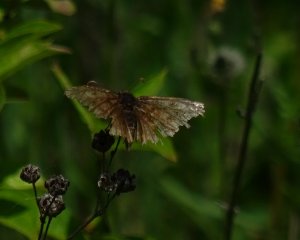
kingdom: Animalia
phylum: Arthropoda
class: Insecta
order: Lepidoptera
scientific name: Lepidoptera
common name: Butterflies
